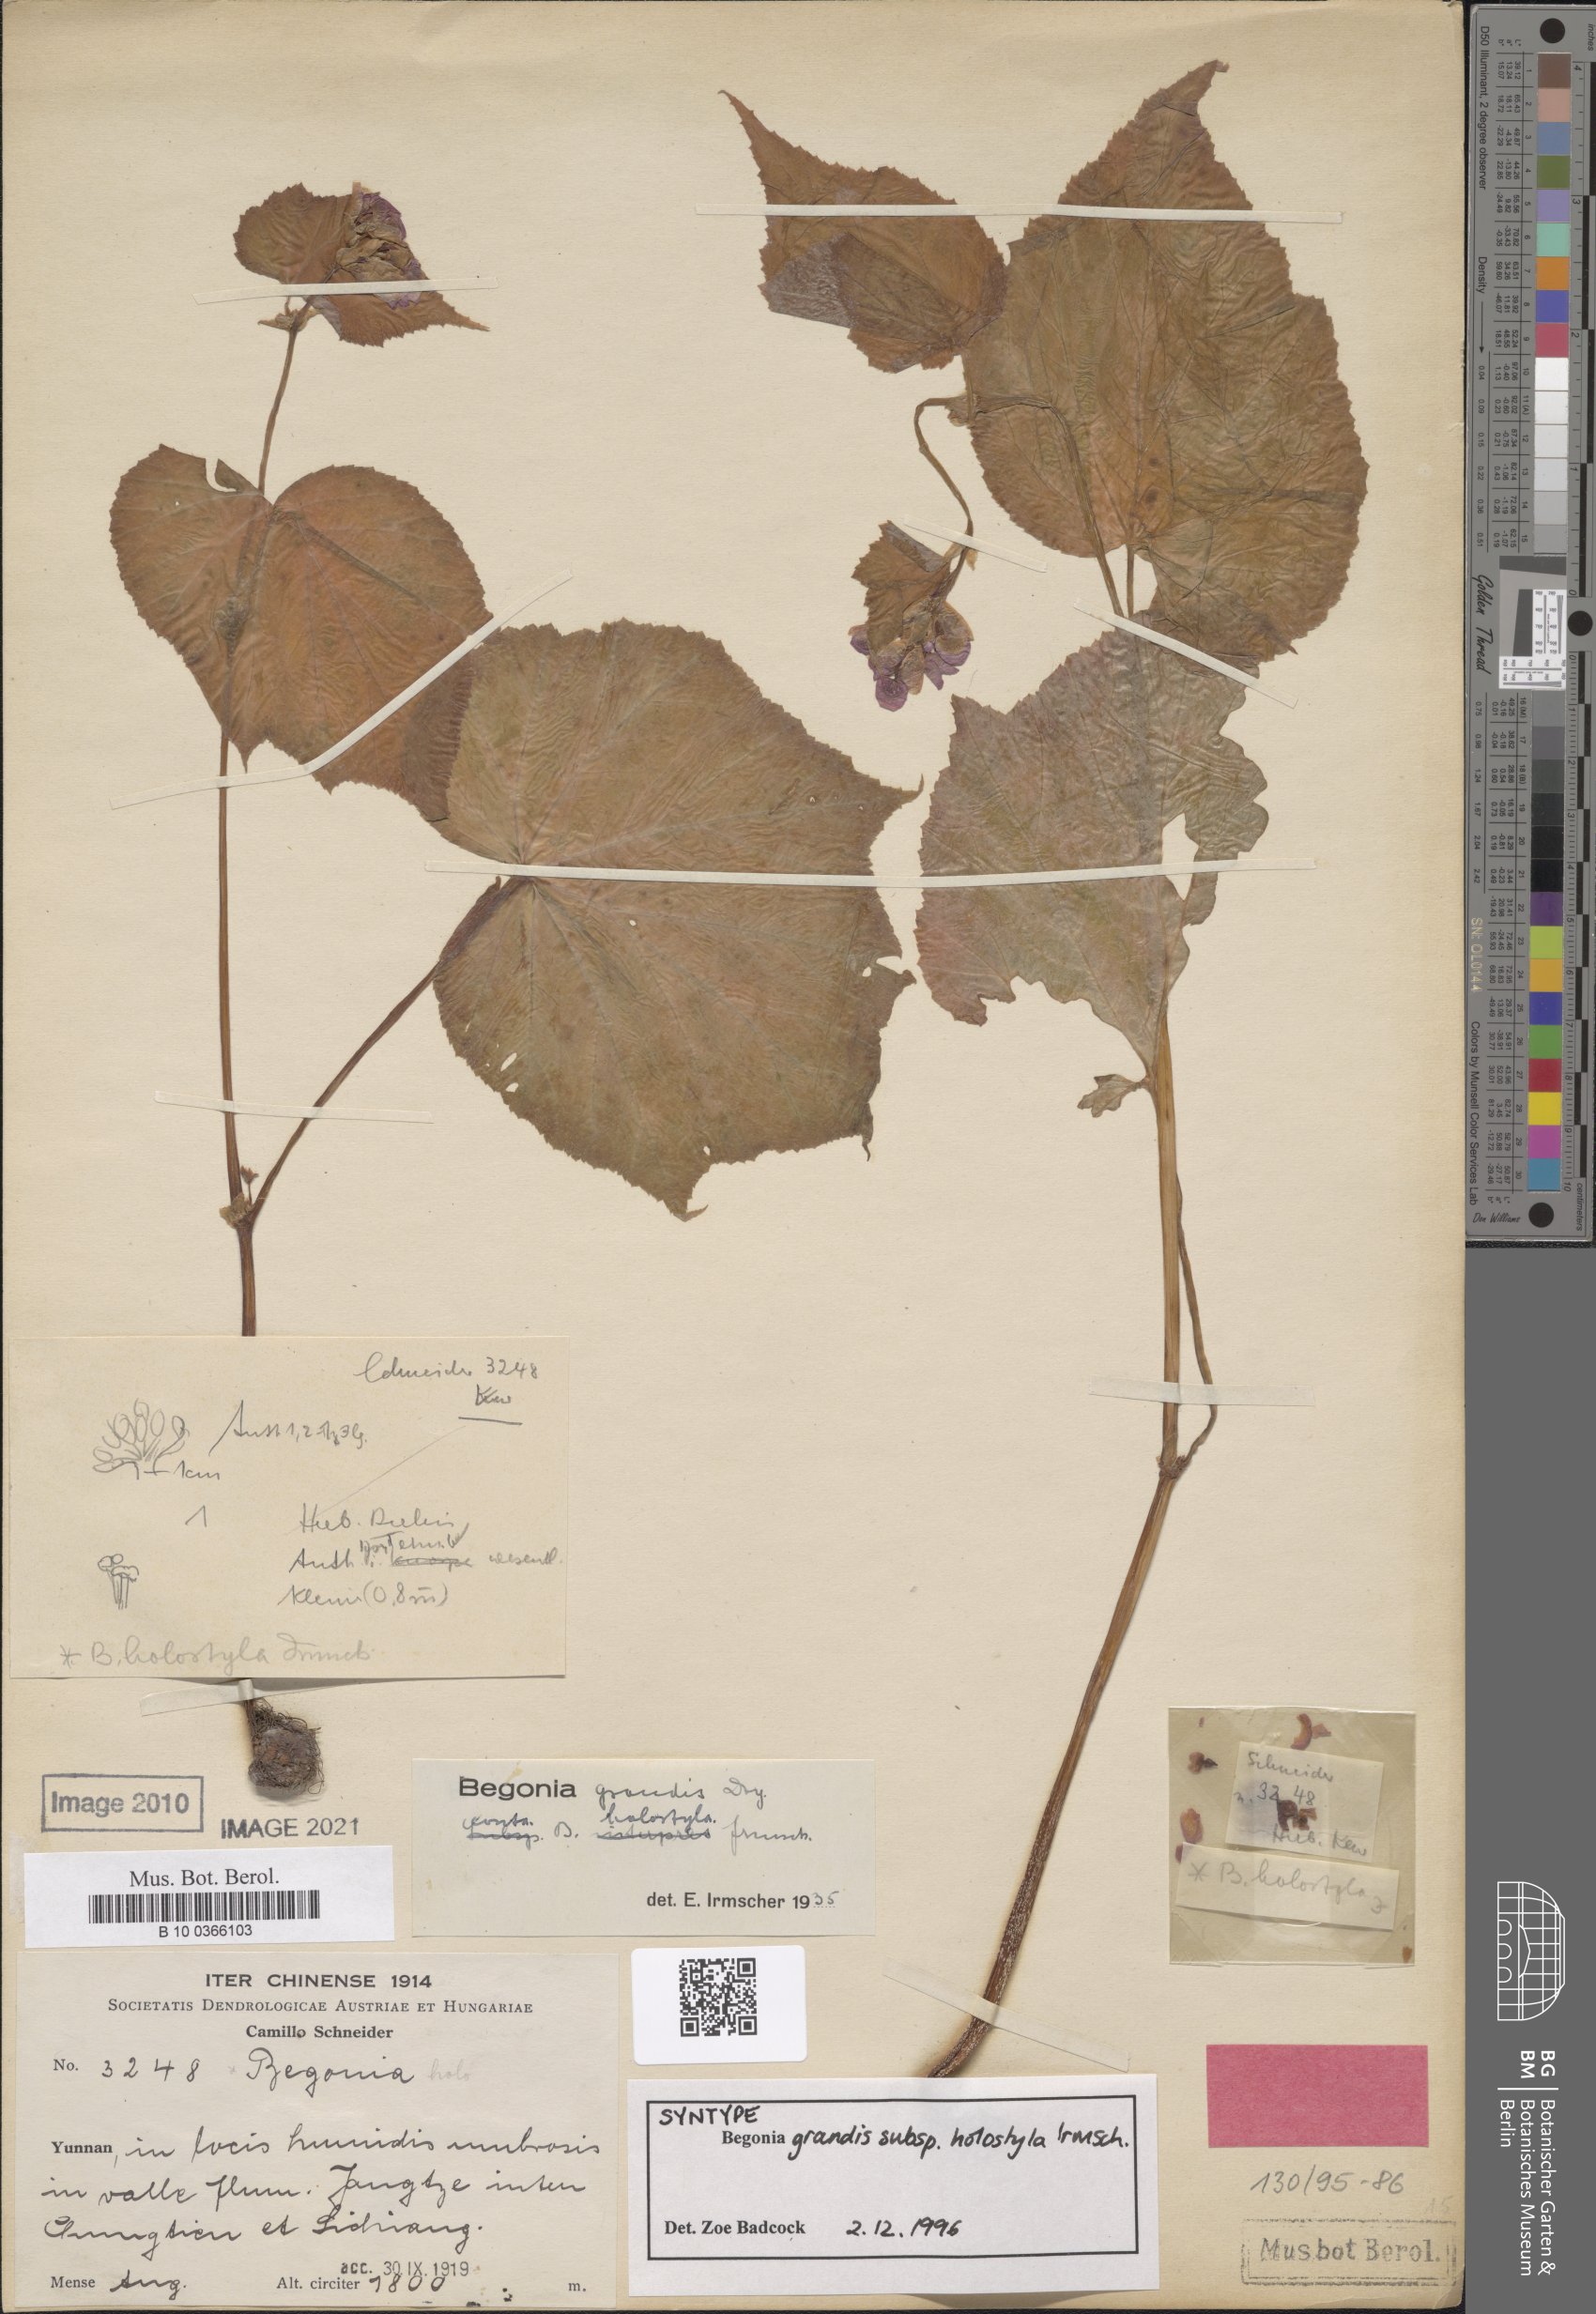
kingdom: Plantae
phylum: Tracheophyta
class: Magnoliopsida
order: Cucurbitales
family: Begoniaceae
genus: Begonia
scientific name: Begonia grandis
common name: Hardy begonia
